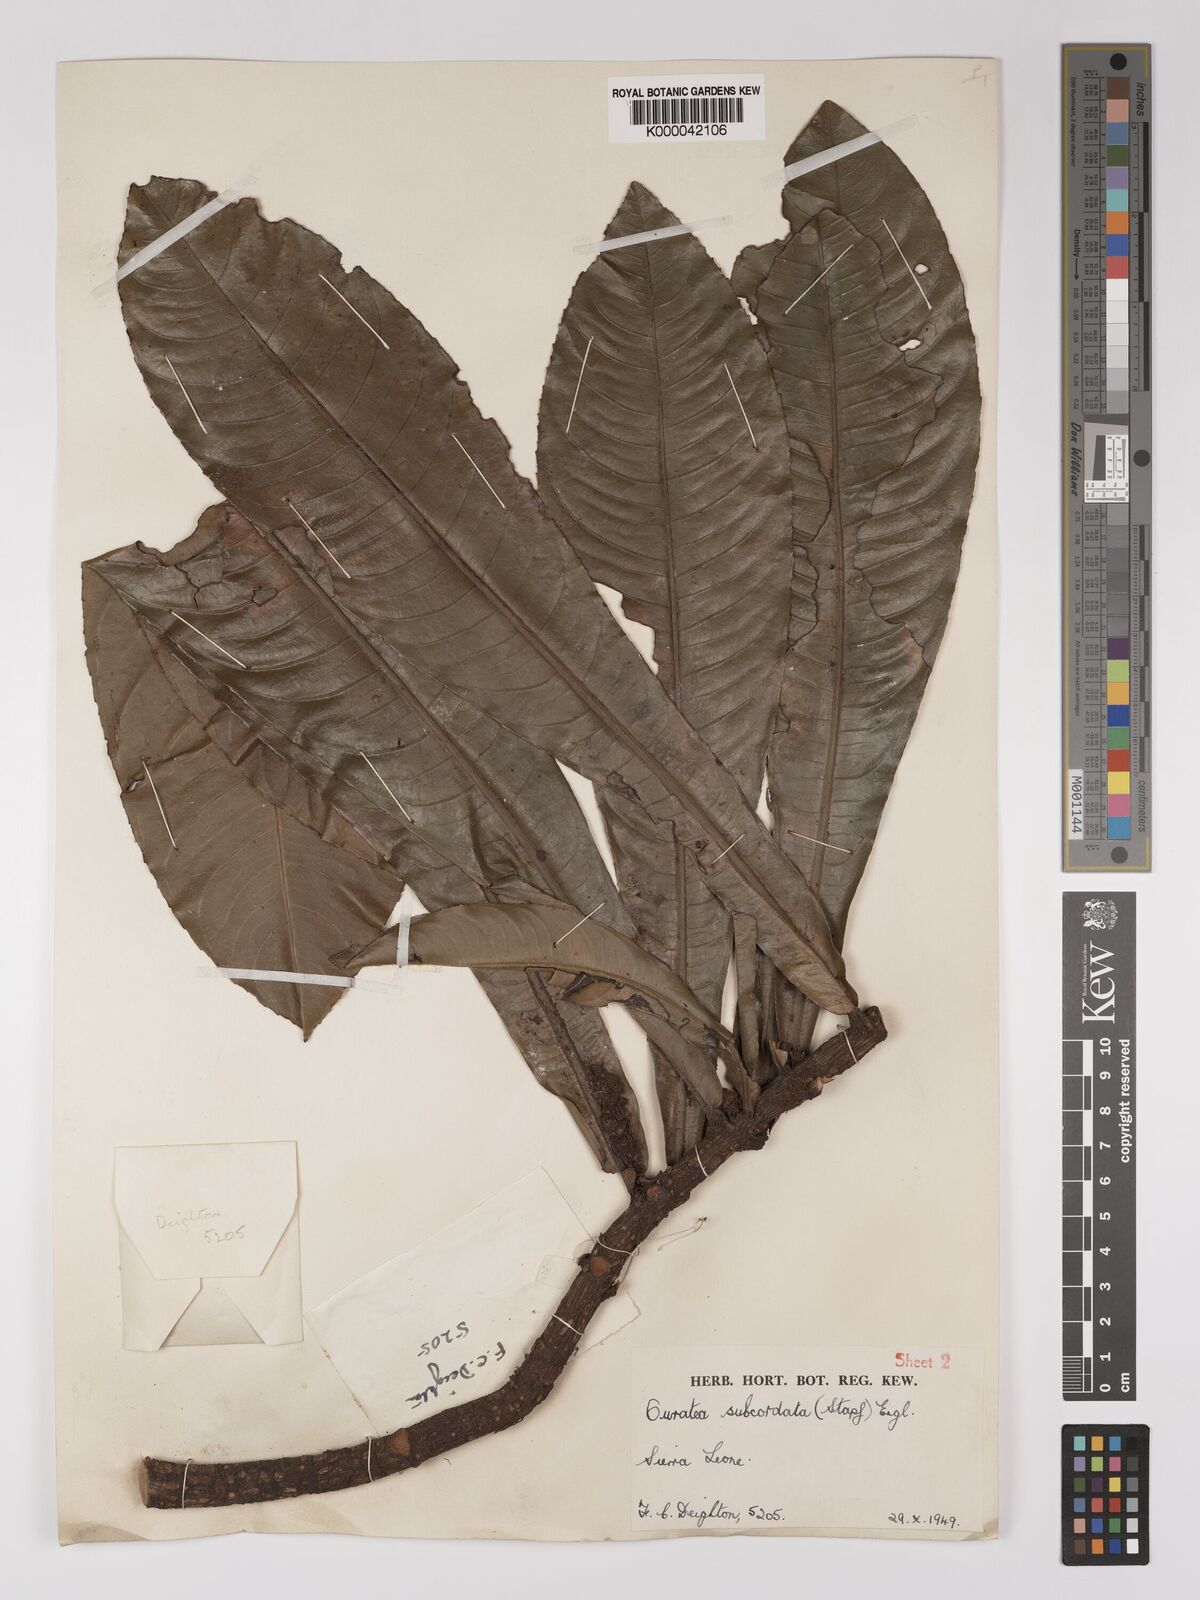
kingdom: Plantae
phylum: Tracheophyta
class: Magnoliopsida
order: Malpighiales
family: Ochnaceae
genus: Campylospermum
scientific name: Campylospermum subcordatum
